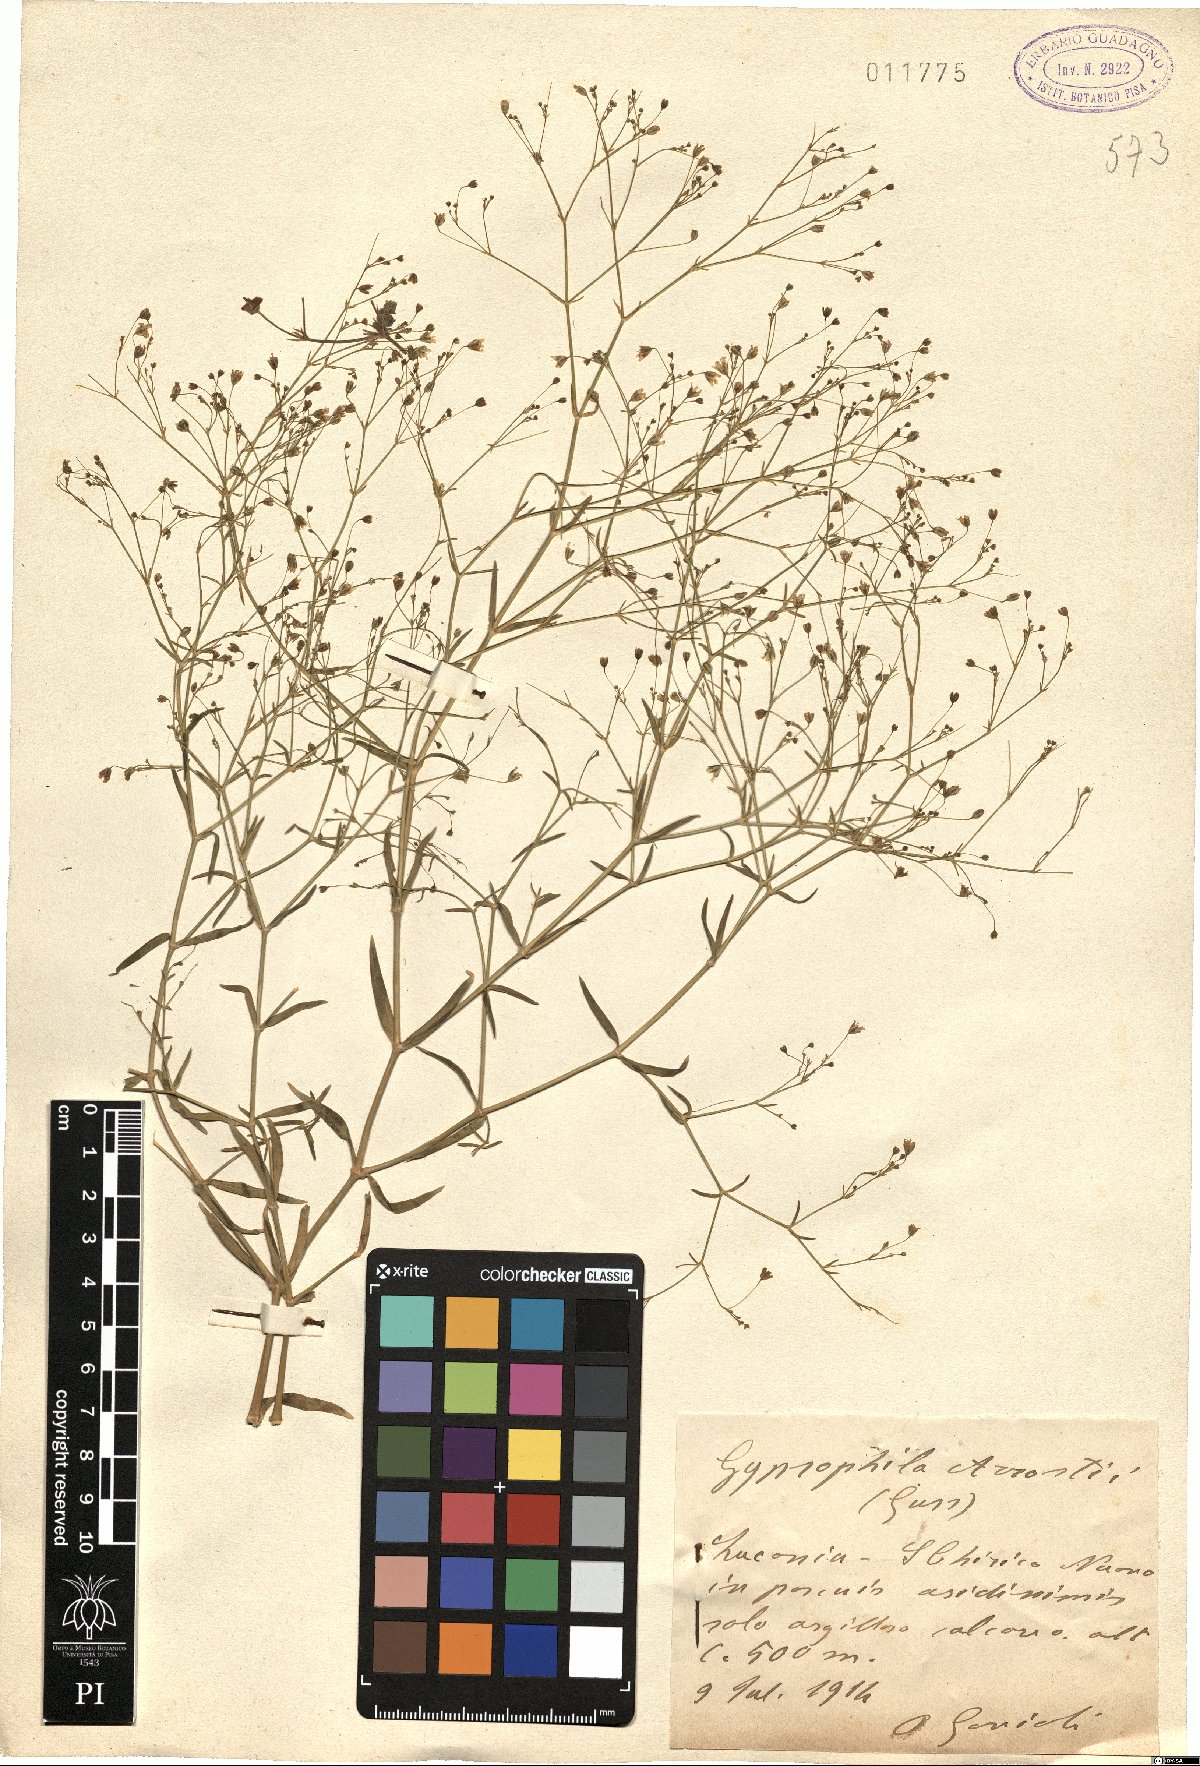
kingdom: Plantae
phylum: Tracheophyta
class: Magnoliopsida
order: Caryophyllales
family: Caryophyllaceae
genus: Gypsophila
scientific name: Gypsophila arrostii
